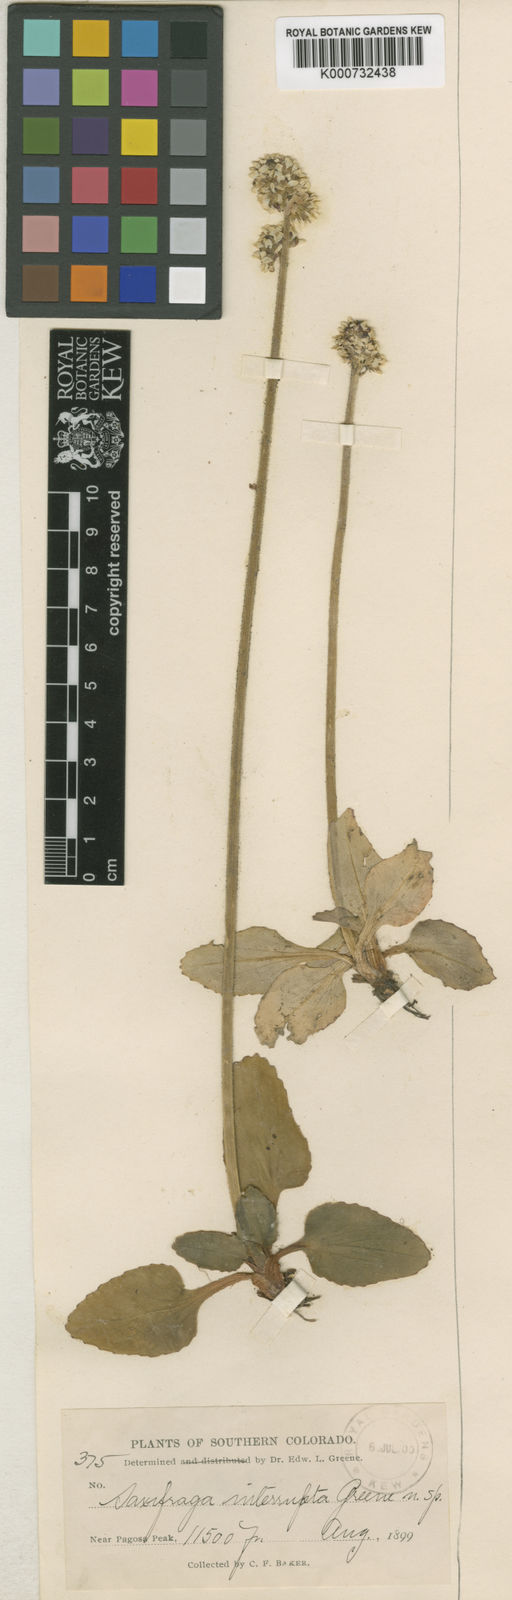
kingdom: Plantae
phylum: Tracheophyta
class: Magnoliopsida
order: Saxifragales
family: Saxifragaceae
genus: Micranthes
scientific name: Micranthes rhomboidea
